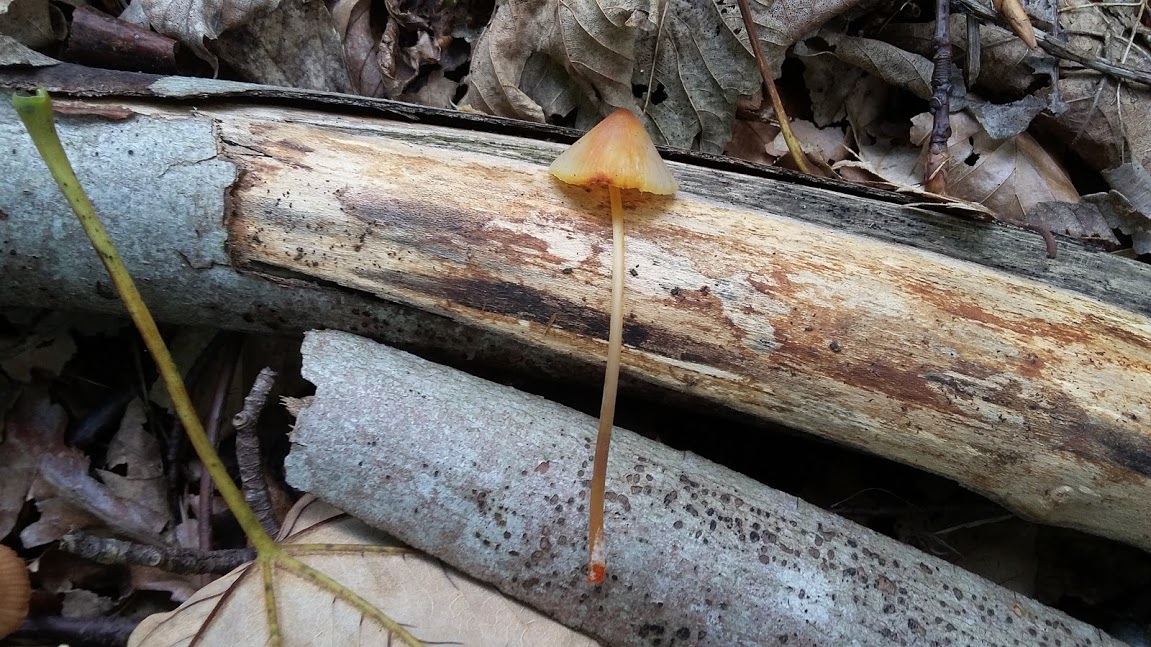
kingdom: Fungi
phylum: Basidiomycota
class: Agaricomycetes
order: Agaricales
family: Mycenaceae
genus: Mycena
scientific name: Mycena crocata
